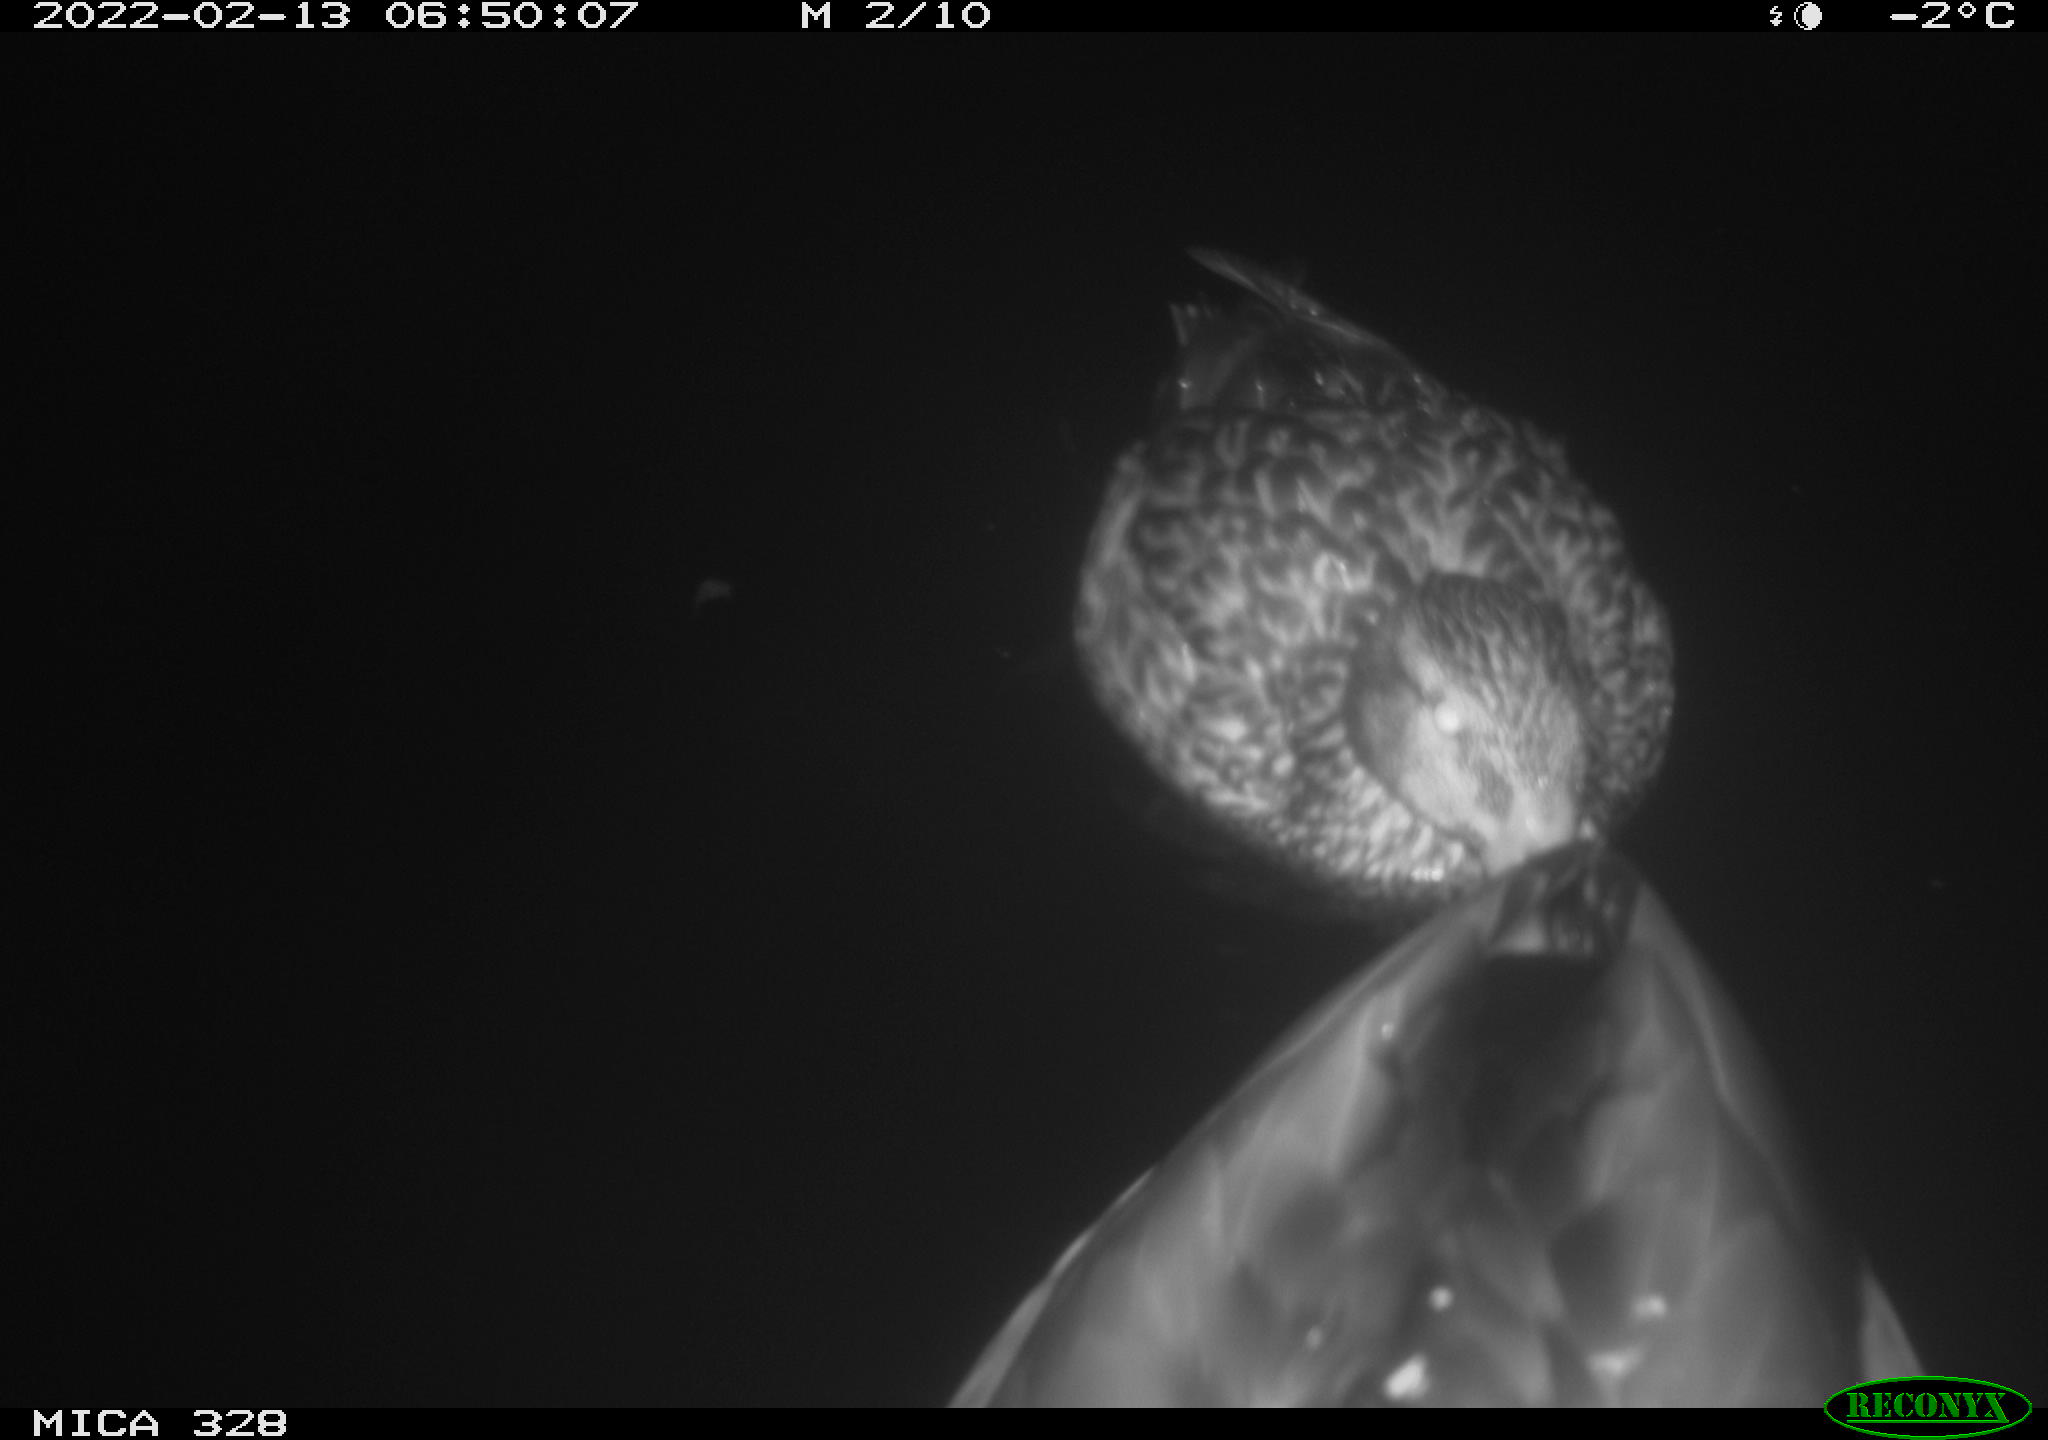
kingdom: Animalia
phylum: Chordata
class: Aves
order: Anseriformes
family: Anatidae
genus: Anas
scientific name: Anas platyrhynchos
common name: Mallard
